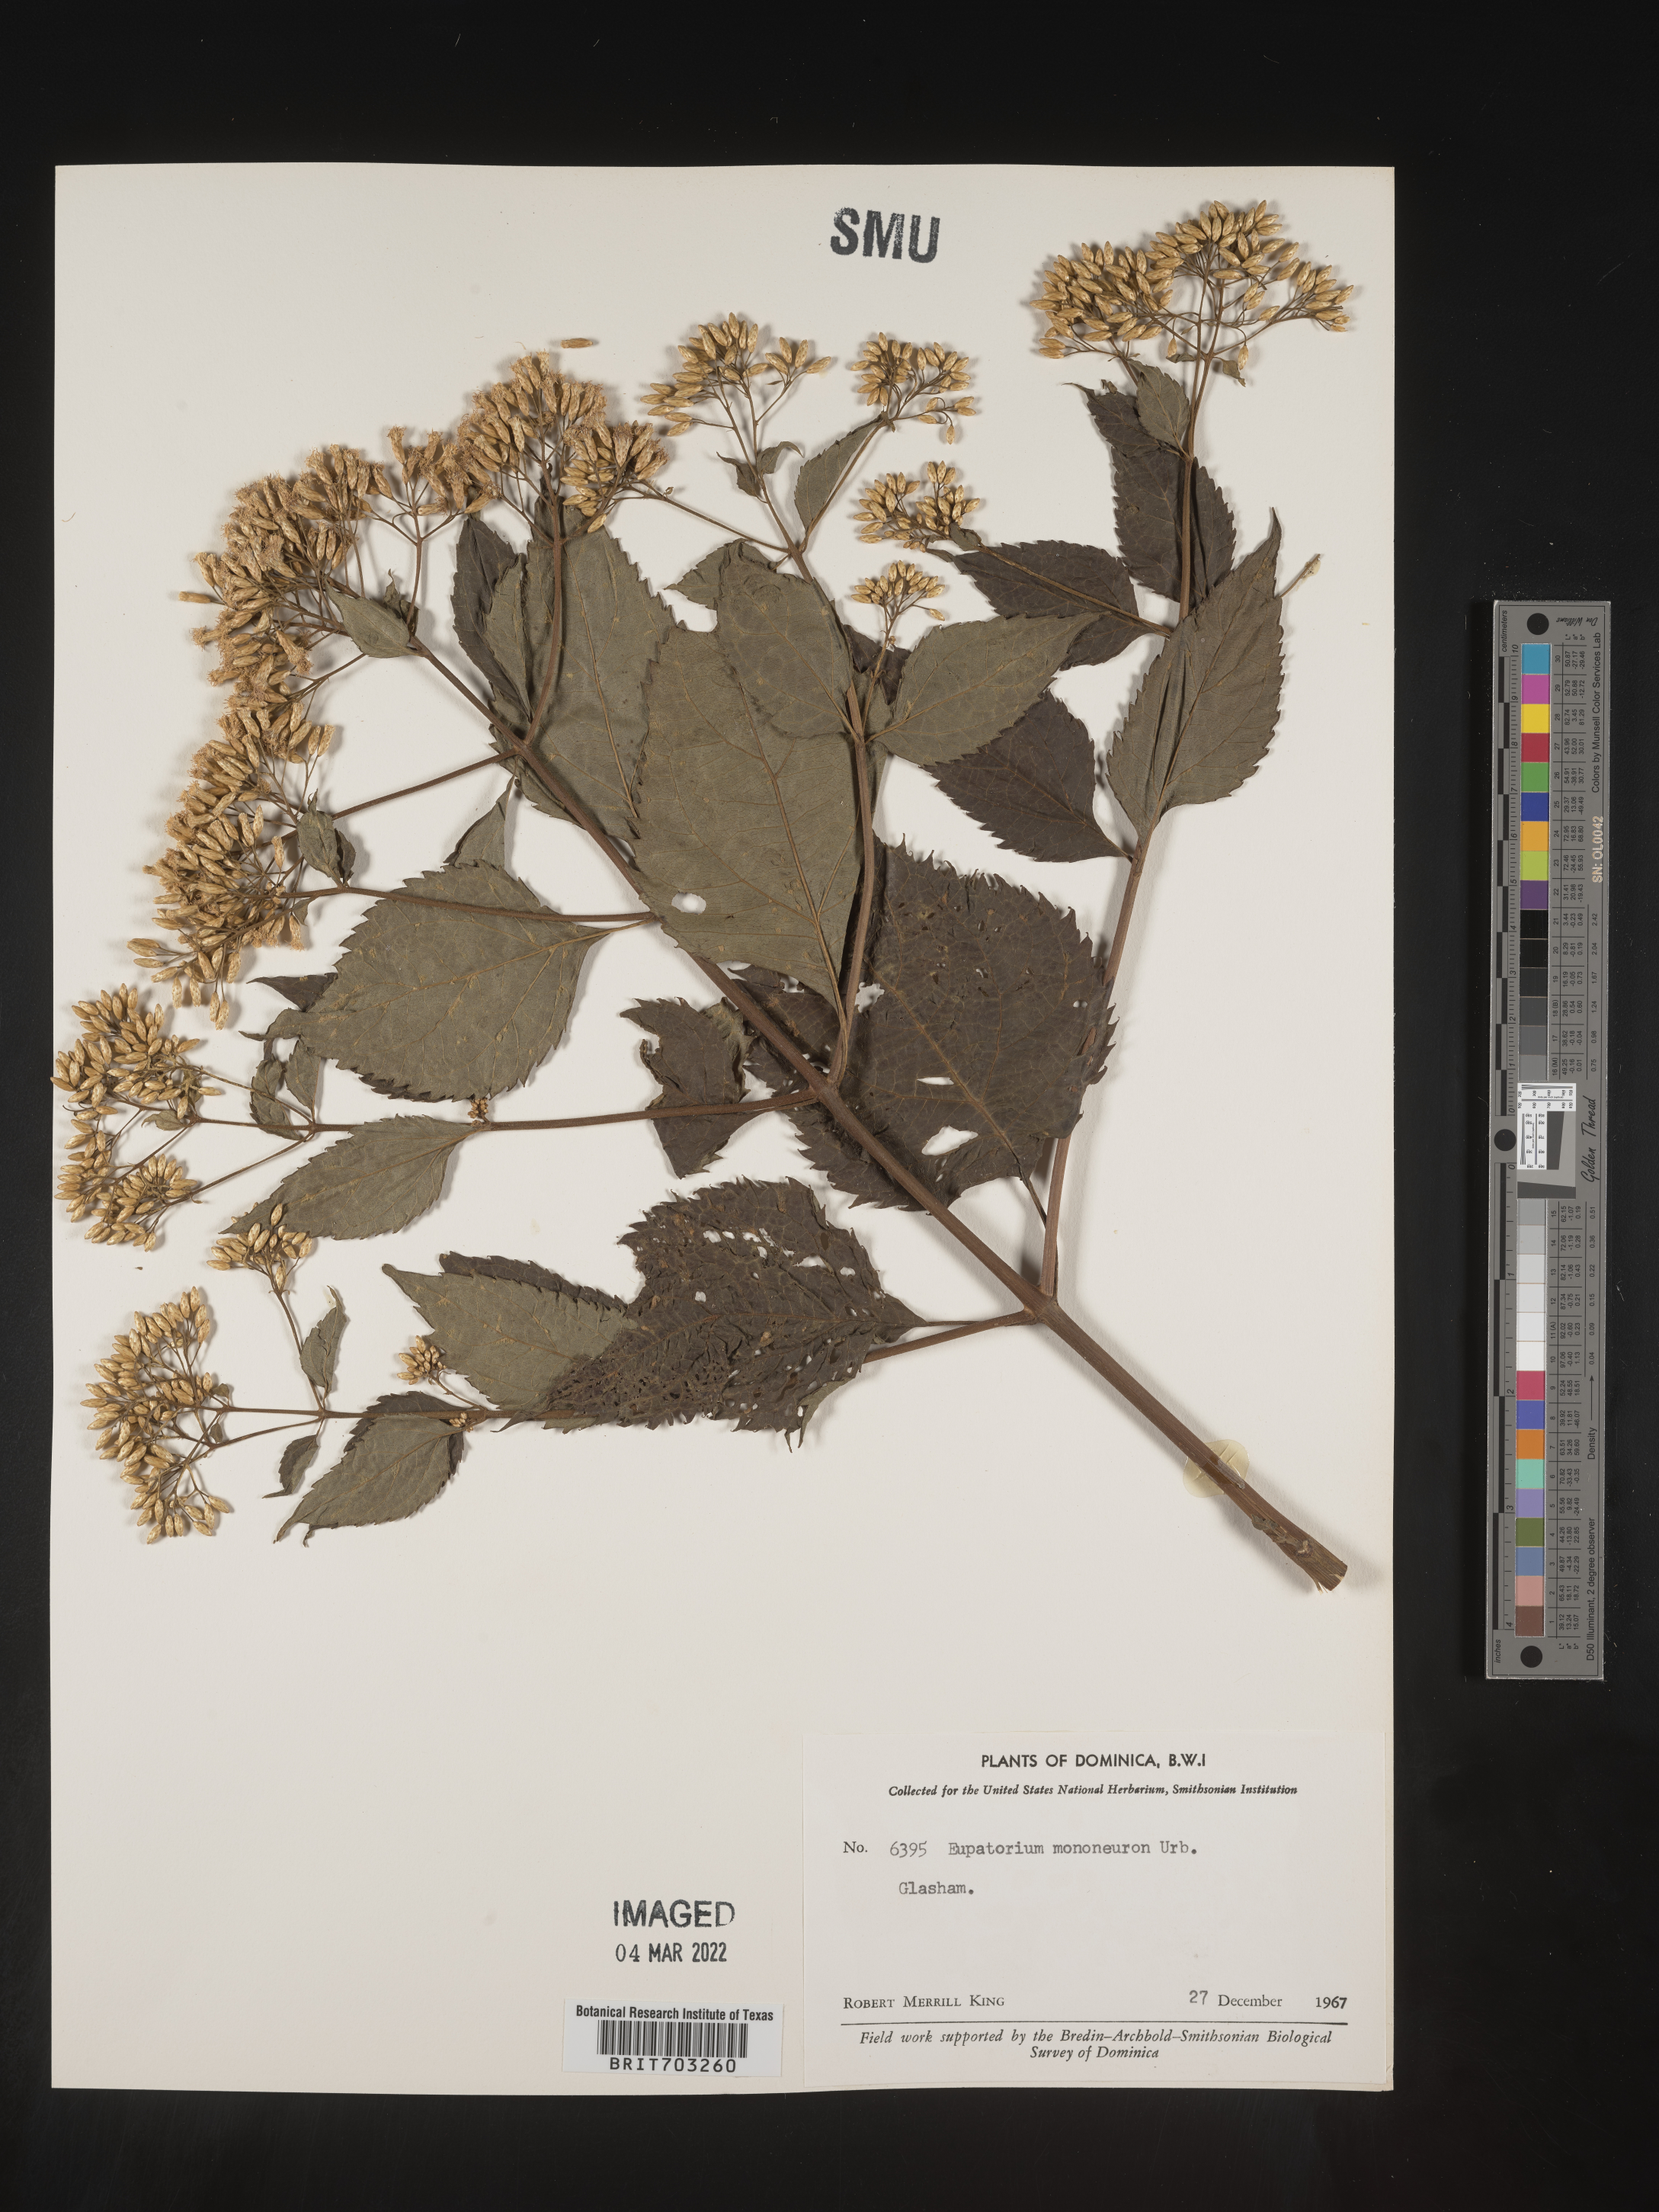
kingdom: Plantae
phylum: Tracheophyta
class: Magnoliopsida
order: Asterales
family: Asteraceae
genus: Eupatorium
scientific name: Eupatorium
